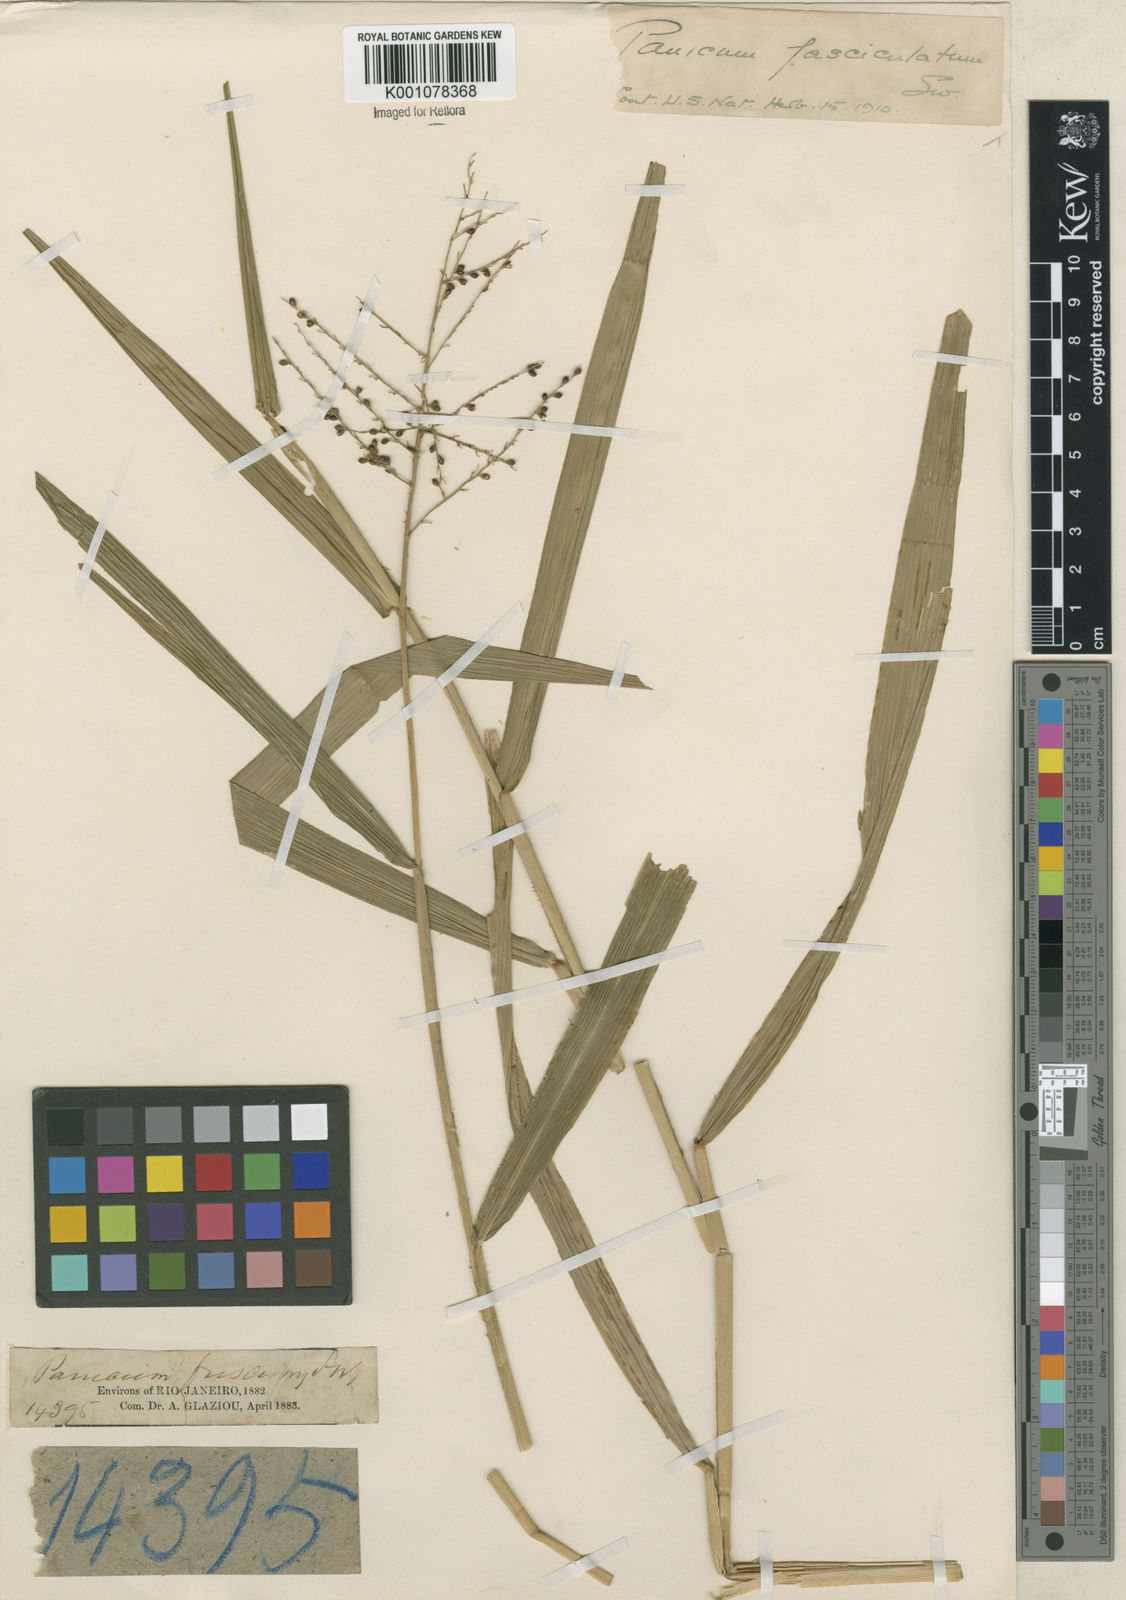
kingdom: Plantae
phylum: Tracheophyta
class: Liliopsida
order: Poales
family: Poaceae
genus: Urochloa
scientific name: Urochloa fusca
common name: Browntop signal grass
